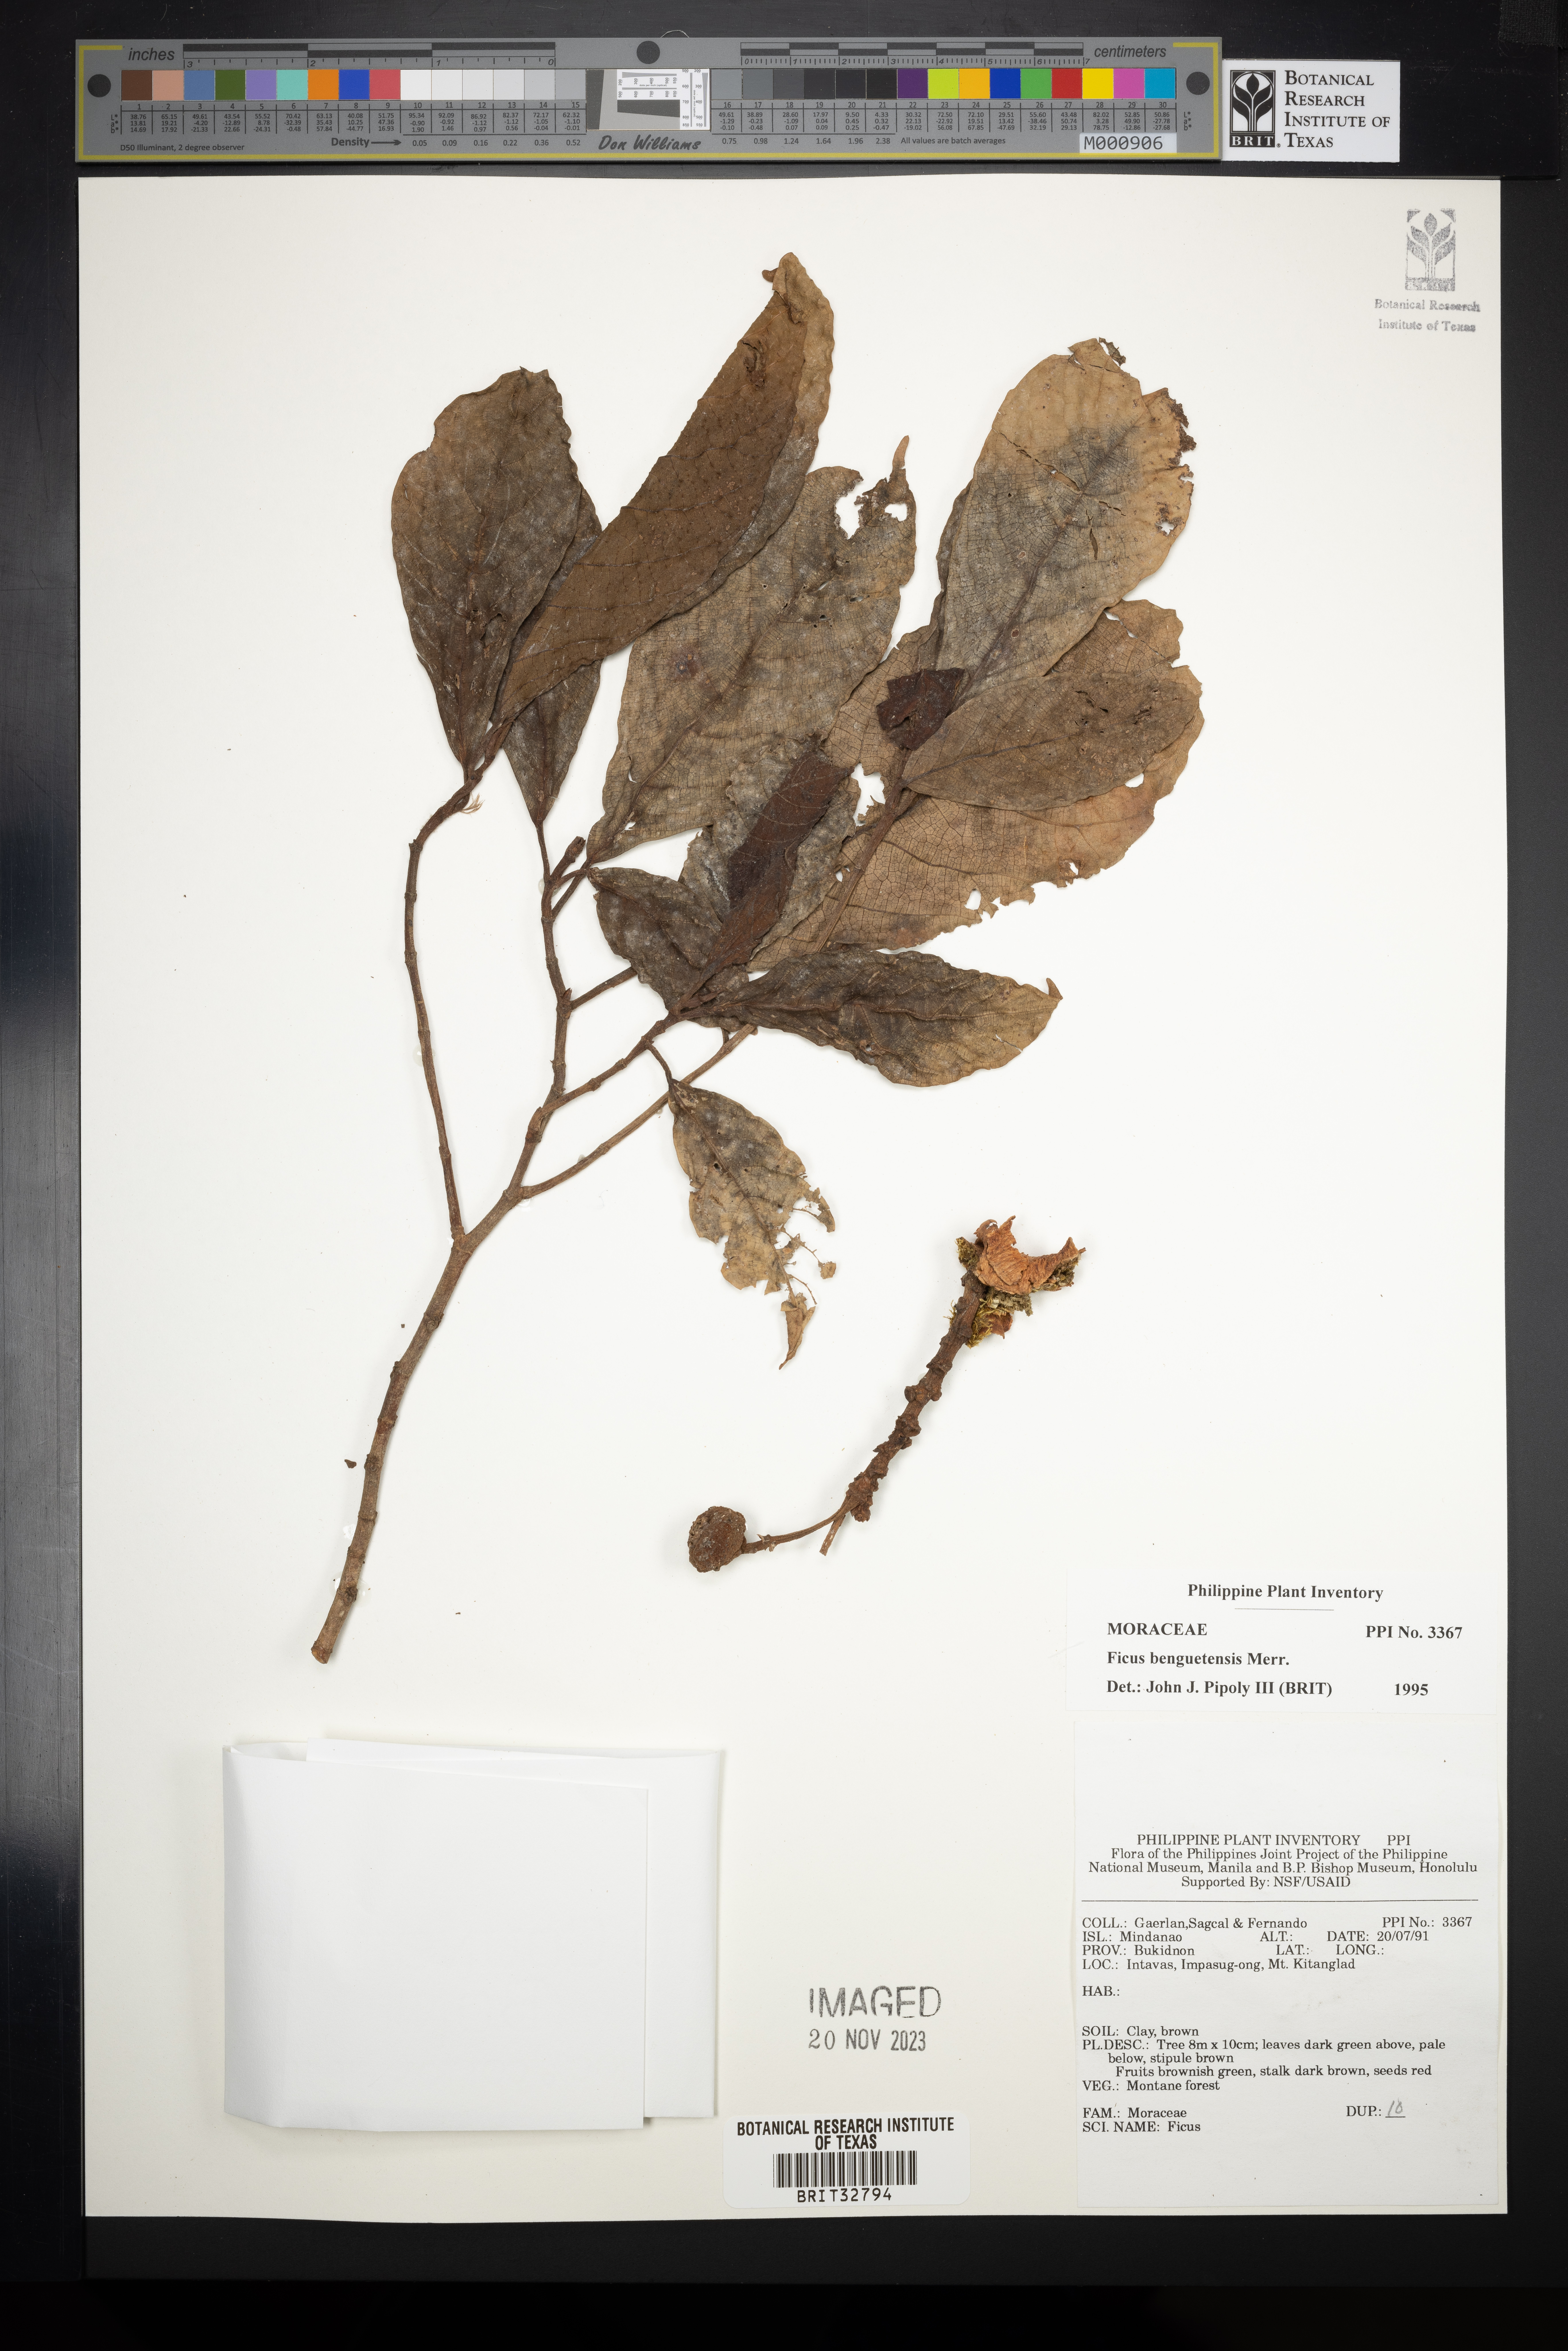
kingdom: Plantae
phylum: Tracheophyta
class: Magnoliopsida
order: Rosales
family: Moraceae
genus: Ficus
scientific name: Ficus benguetensis
